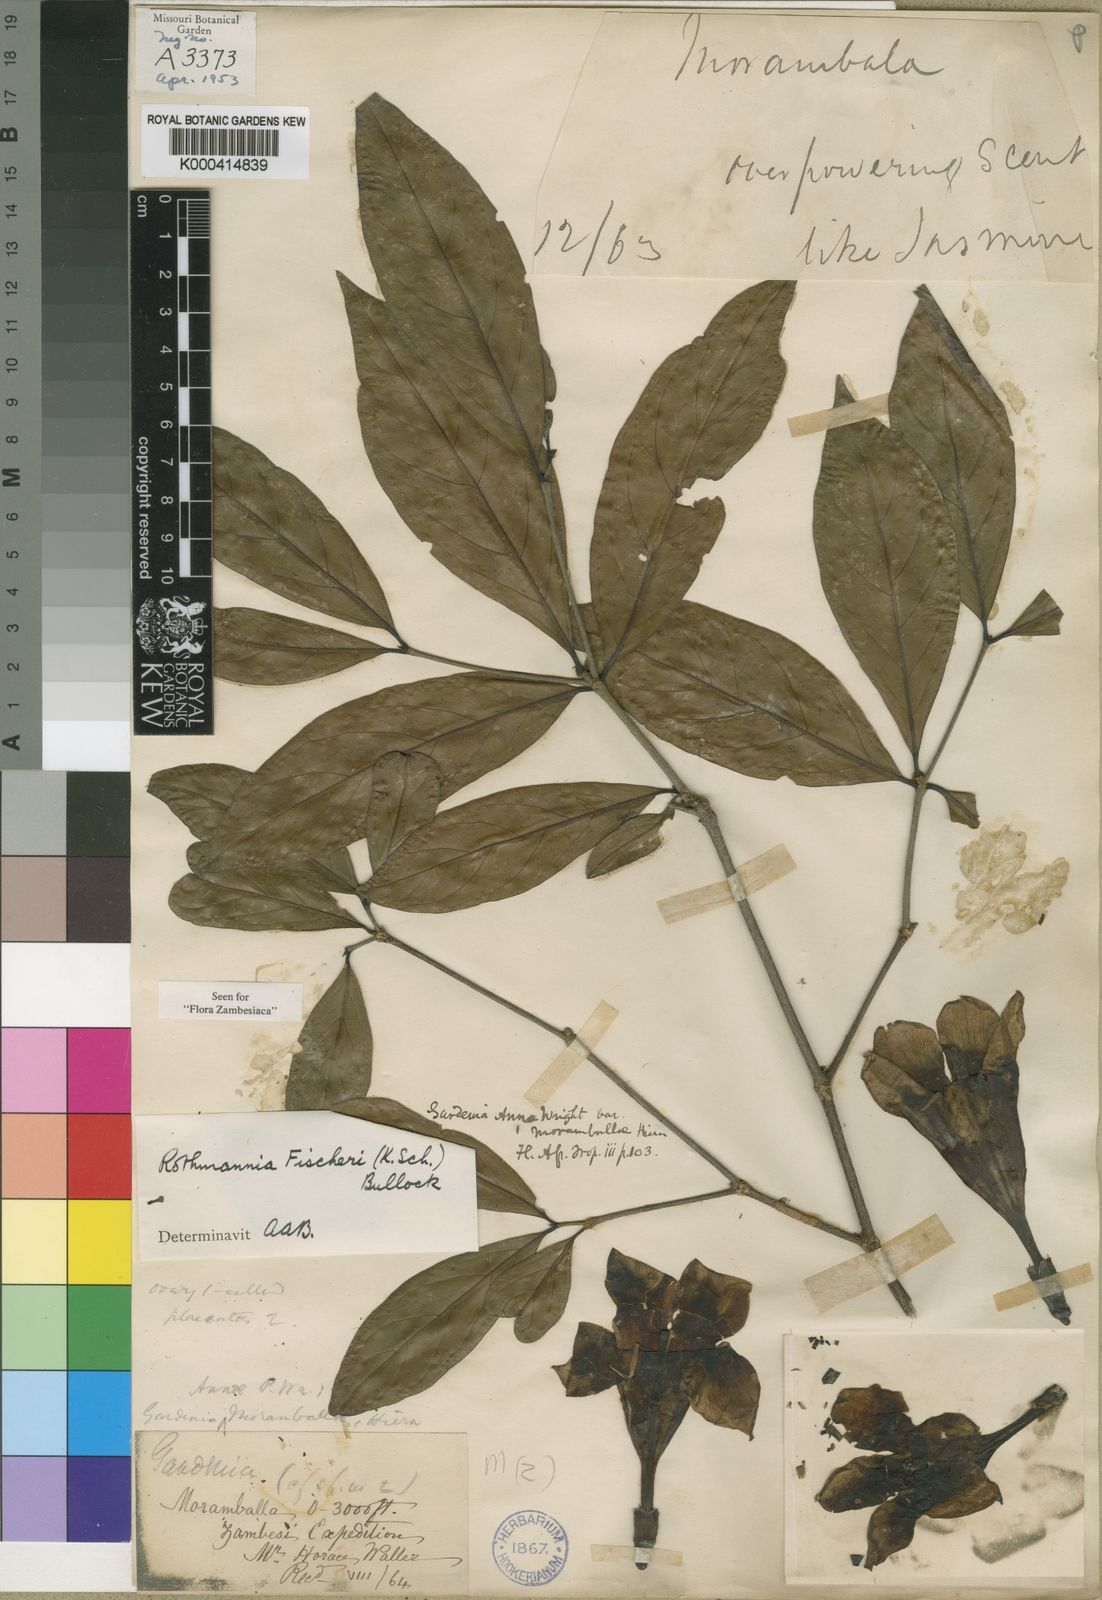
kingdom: Plantae
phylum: Tracheophyta
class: Magnoliopsida
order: Gentianales
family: Rubiaceae
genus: Rothmannia
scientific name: Rothmannia fischeri
